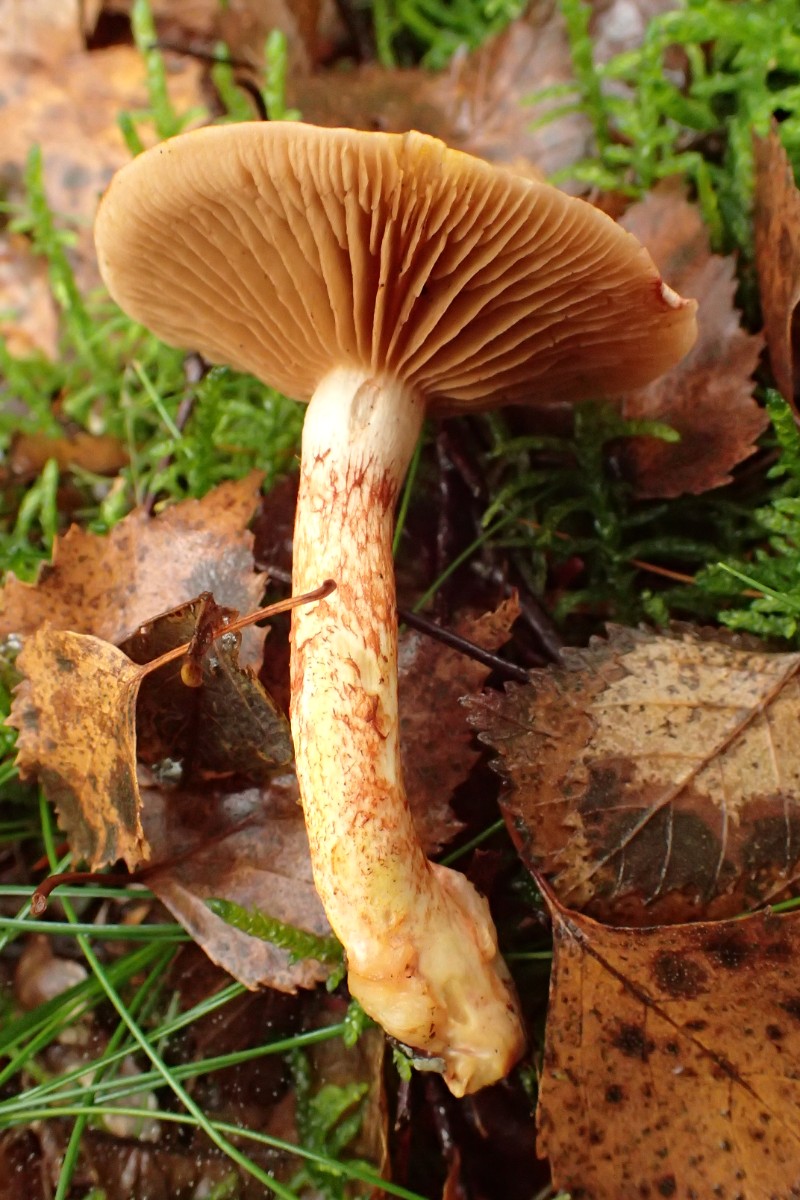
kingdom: Fungi
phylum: Basidiomycota
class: Agaricomycetes
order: Agaricales
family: Cortinariaceae
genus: Cortinarius
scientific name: Cortinarius bolaris
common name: cinnoberskællet slørhat
